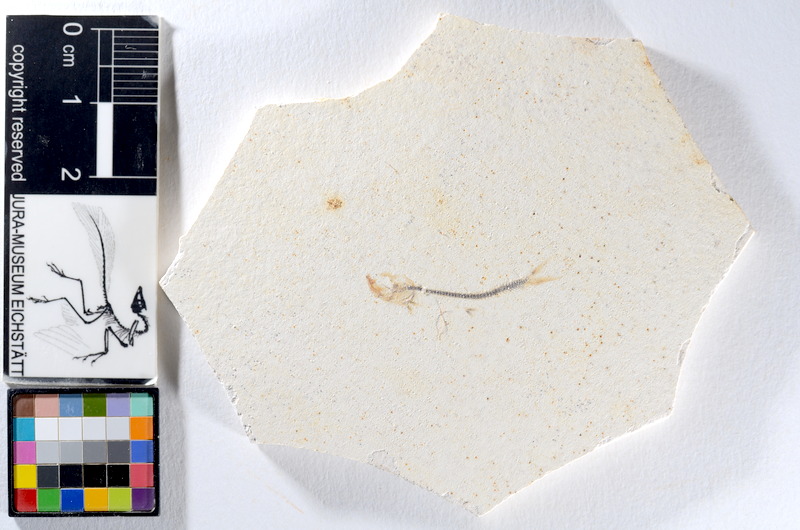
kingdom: Animalia
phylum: Chordata
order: Salmoniformes
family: Orthogonikleithridae
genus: Orthogonikleithrus
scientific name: Orthogonikleithrus hoelli
